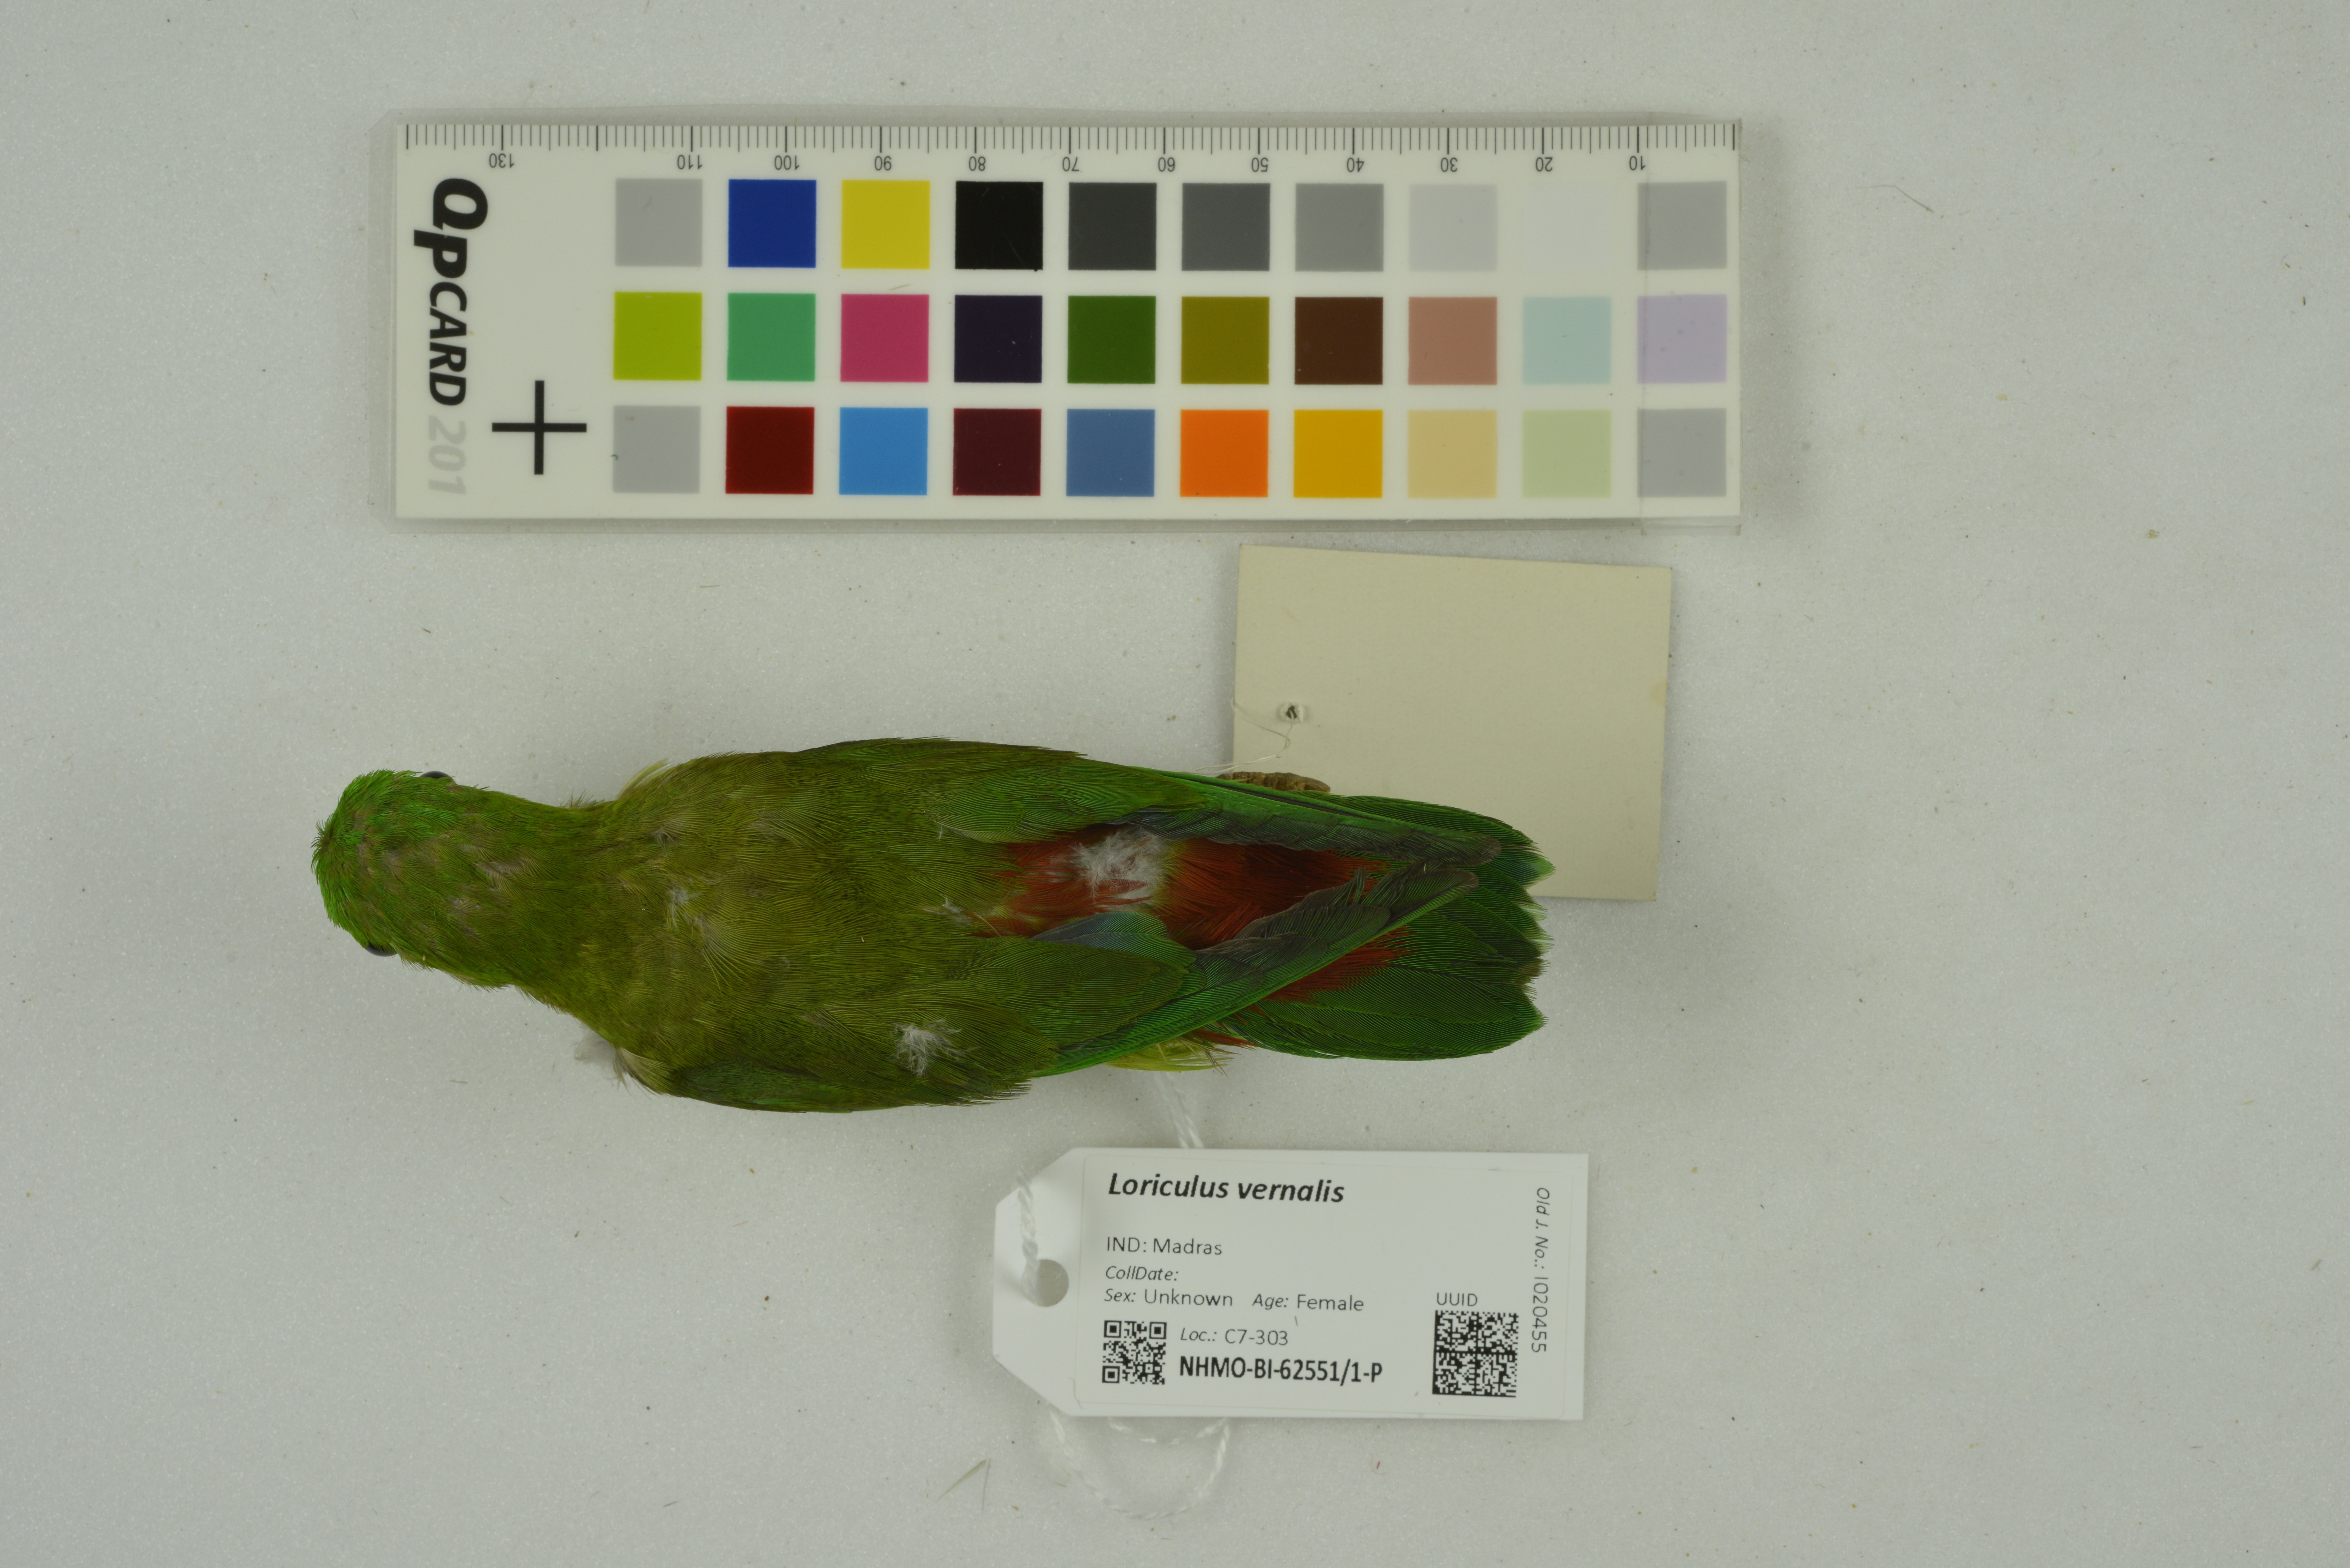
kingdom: Animalia
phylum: Chordata
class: Aves
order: Psittaciformes
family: Psittacidae
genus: Loriculus
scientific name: Loriculus vernalis
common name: Vernal hanging parrot
